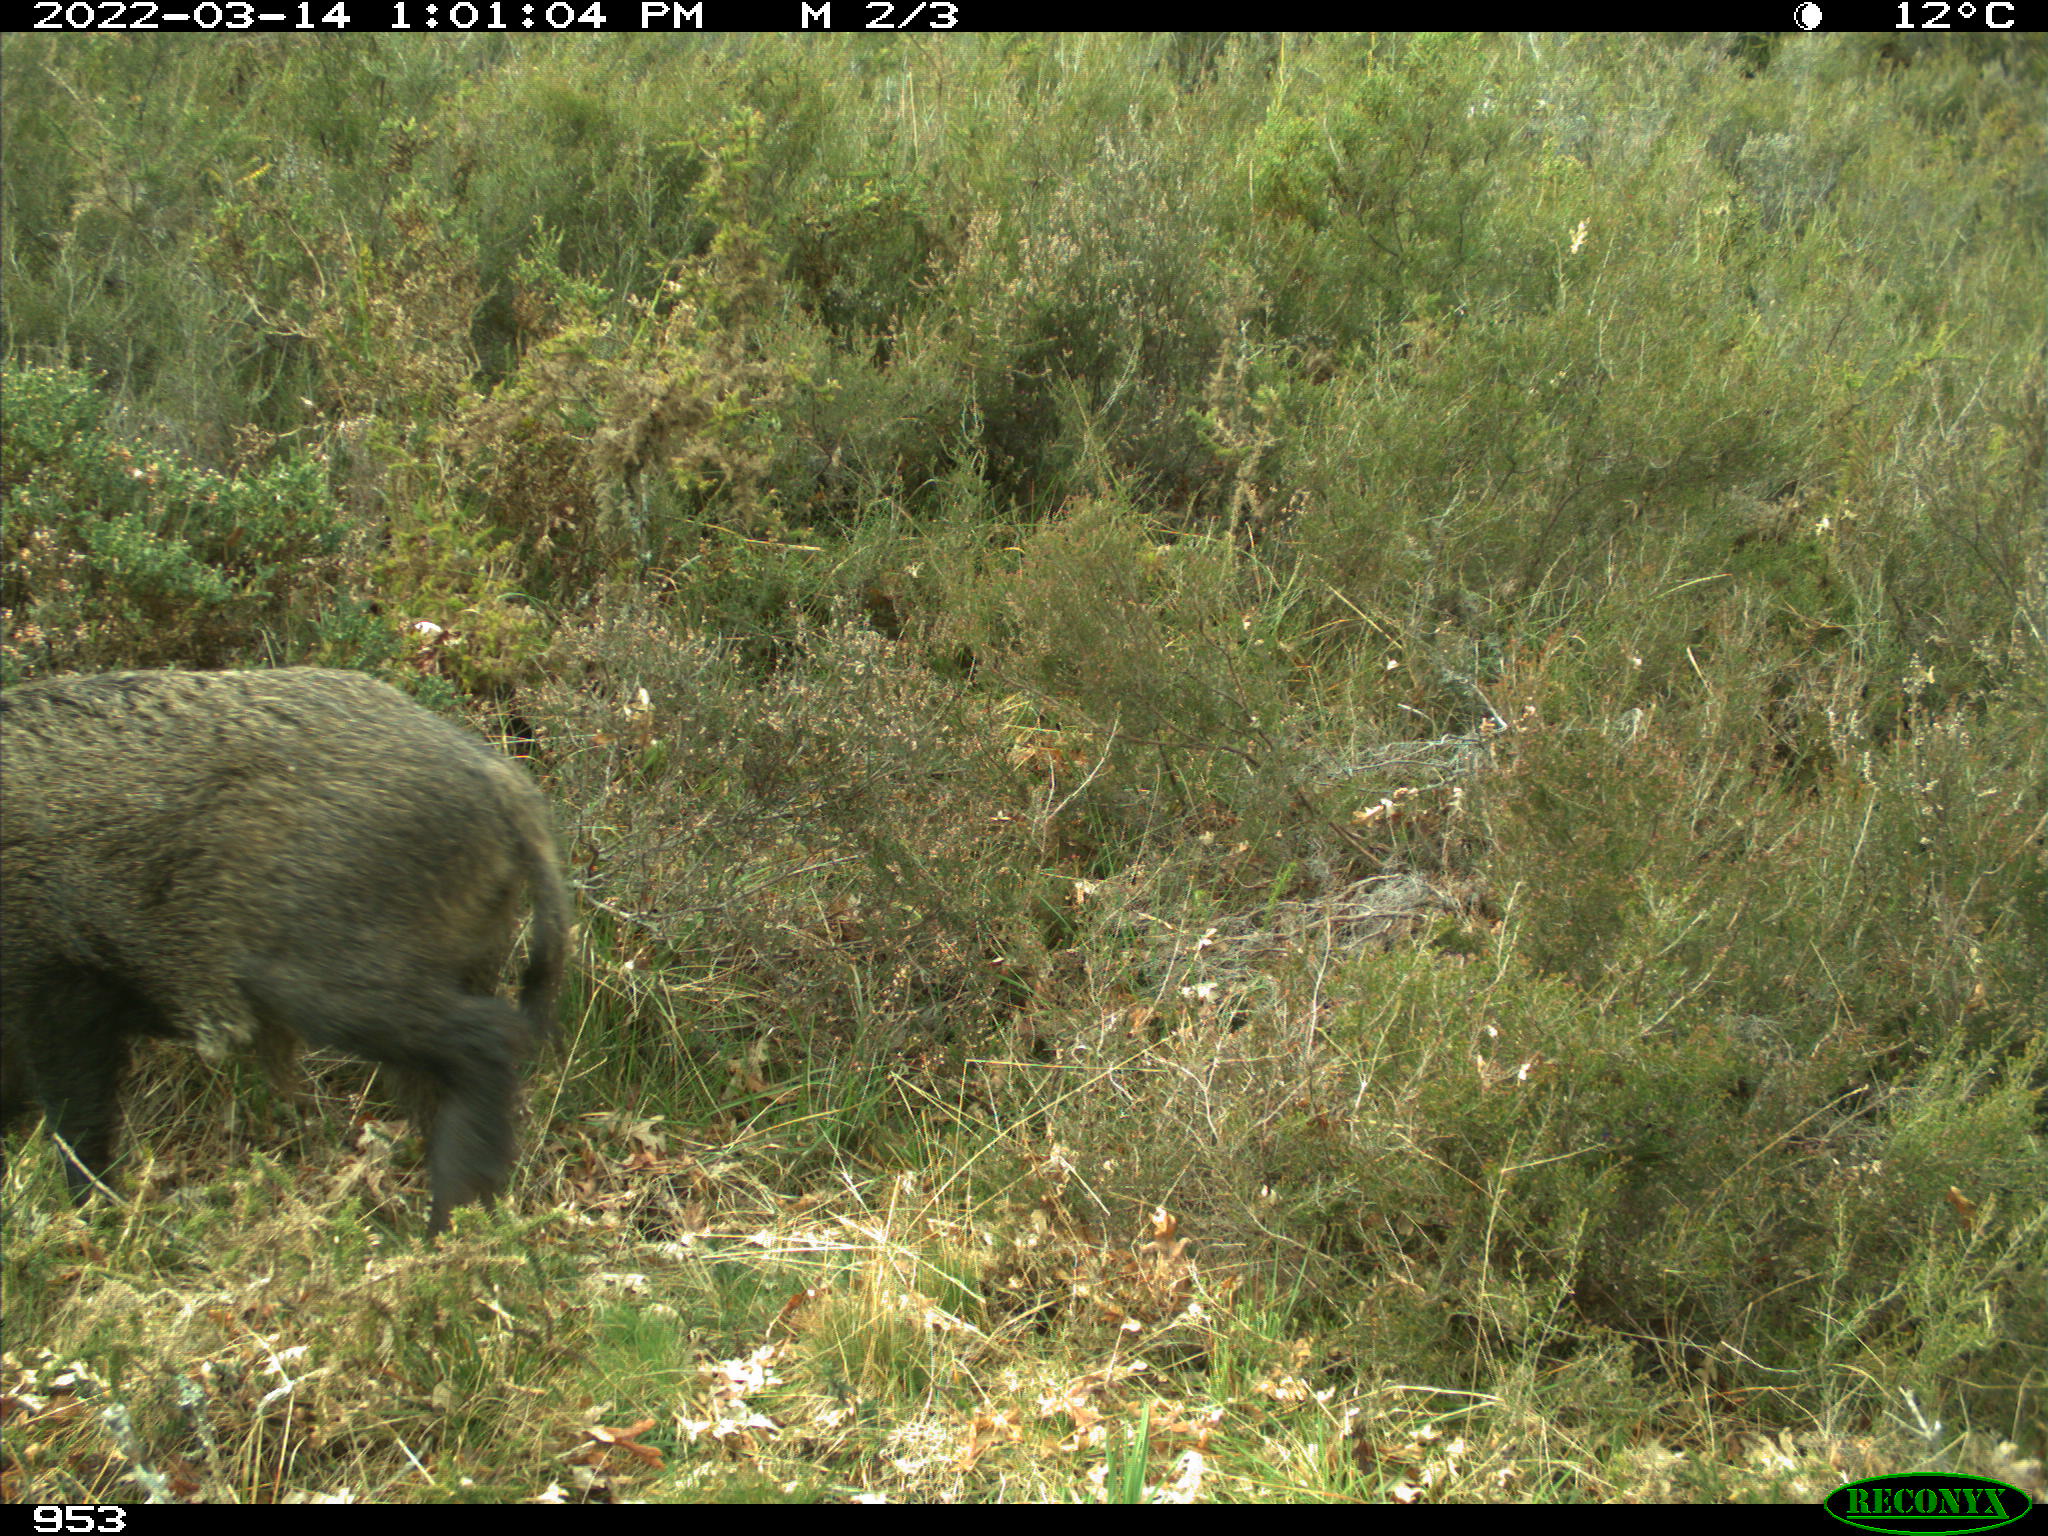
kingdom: Animalia
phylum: Chordata
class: Mammalia
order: Artiodactyla
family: Suidae
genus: Sus
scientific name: Sus scrofa
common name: Wild boar
